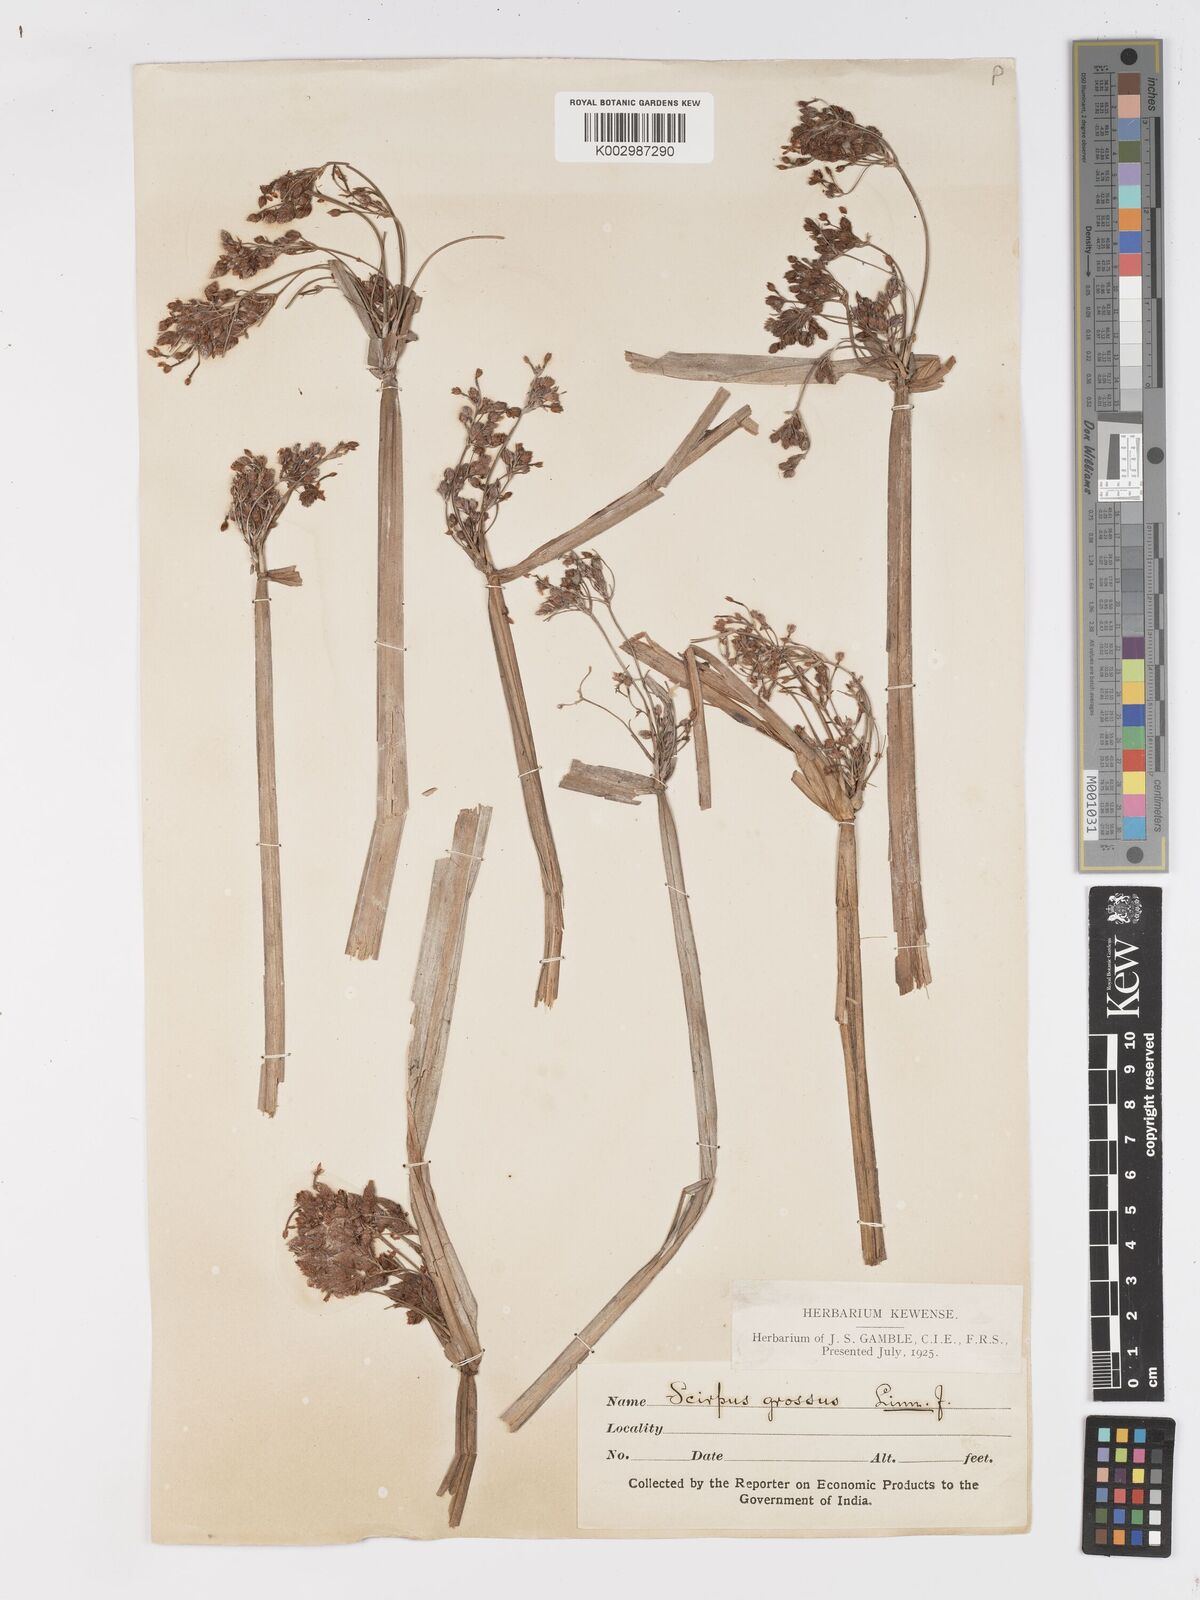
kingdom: Plantae
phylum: Tracheophyta
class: Liliopsida
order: Poales
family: Cyperaceae
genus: Actinoscirpus
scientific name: Actinoscirpus grossus
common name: Giant bur rush
